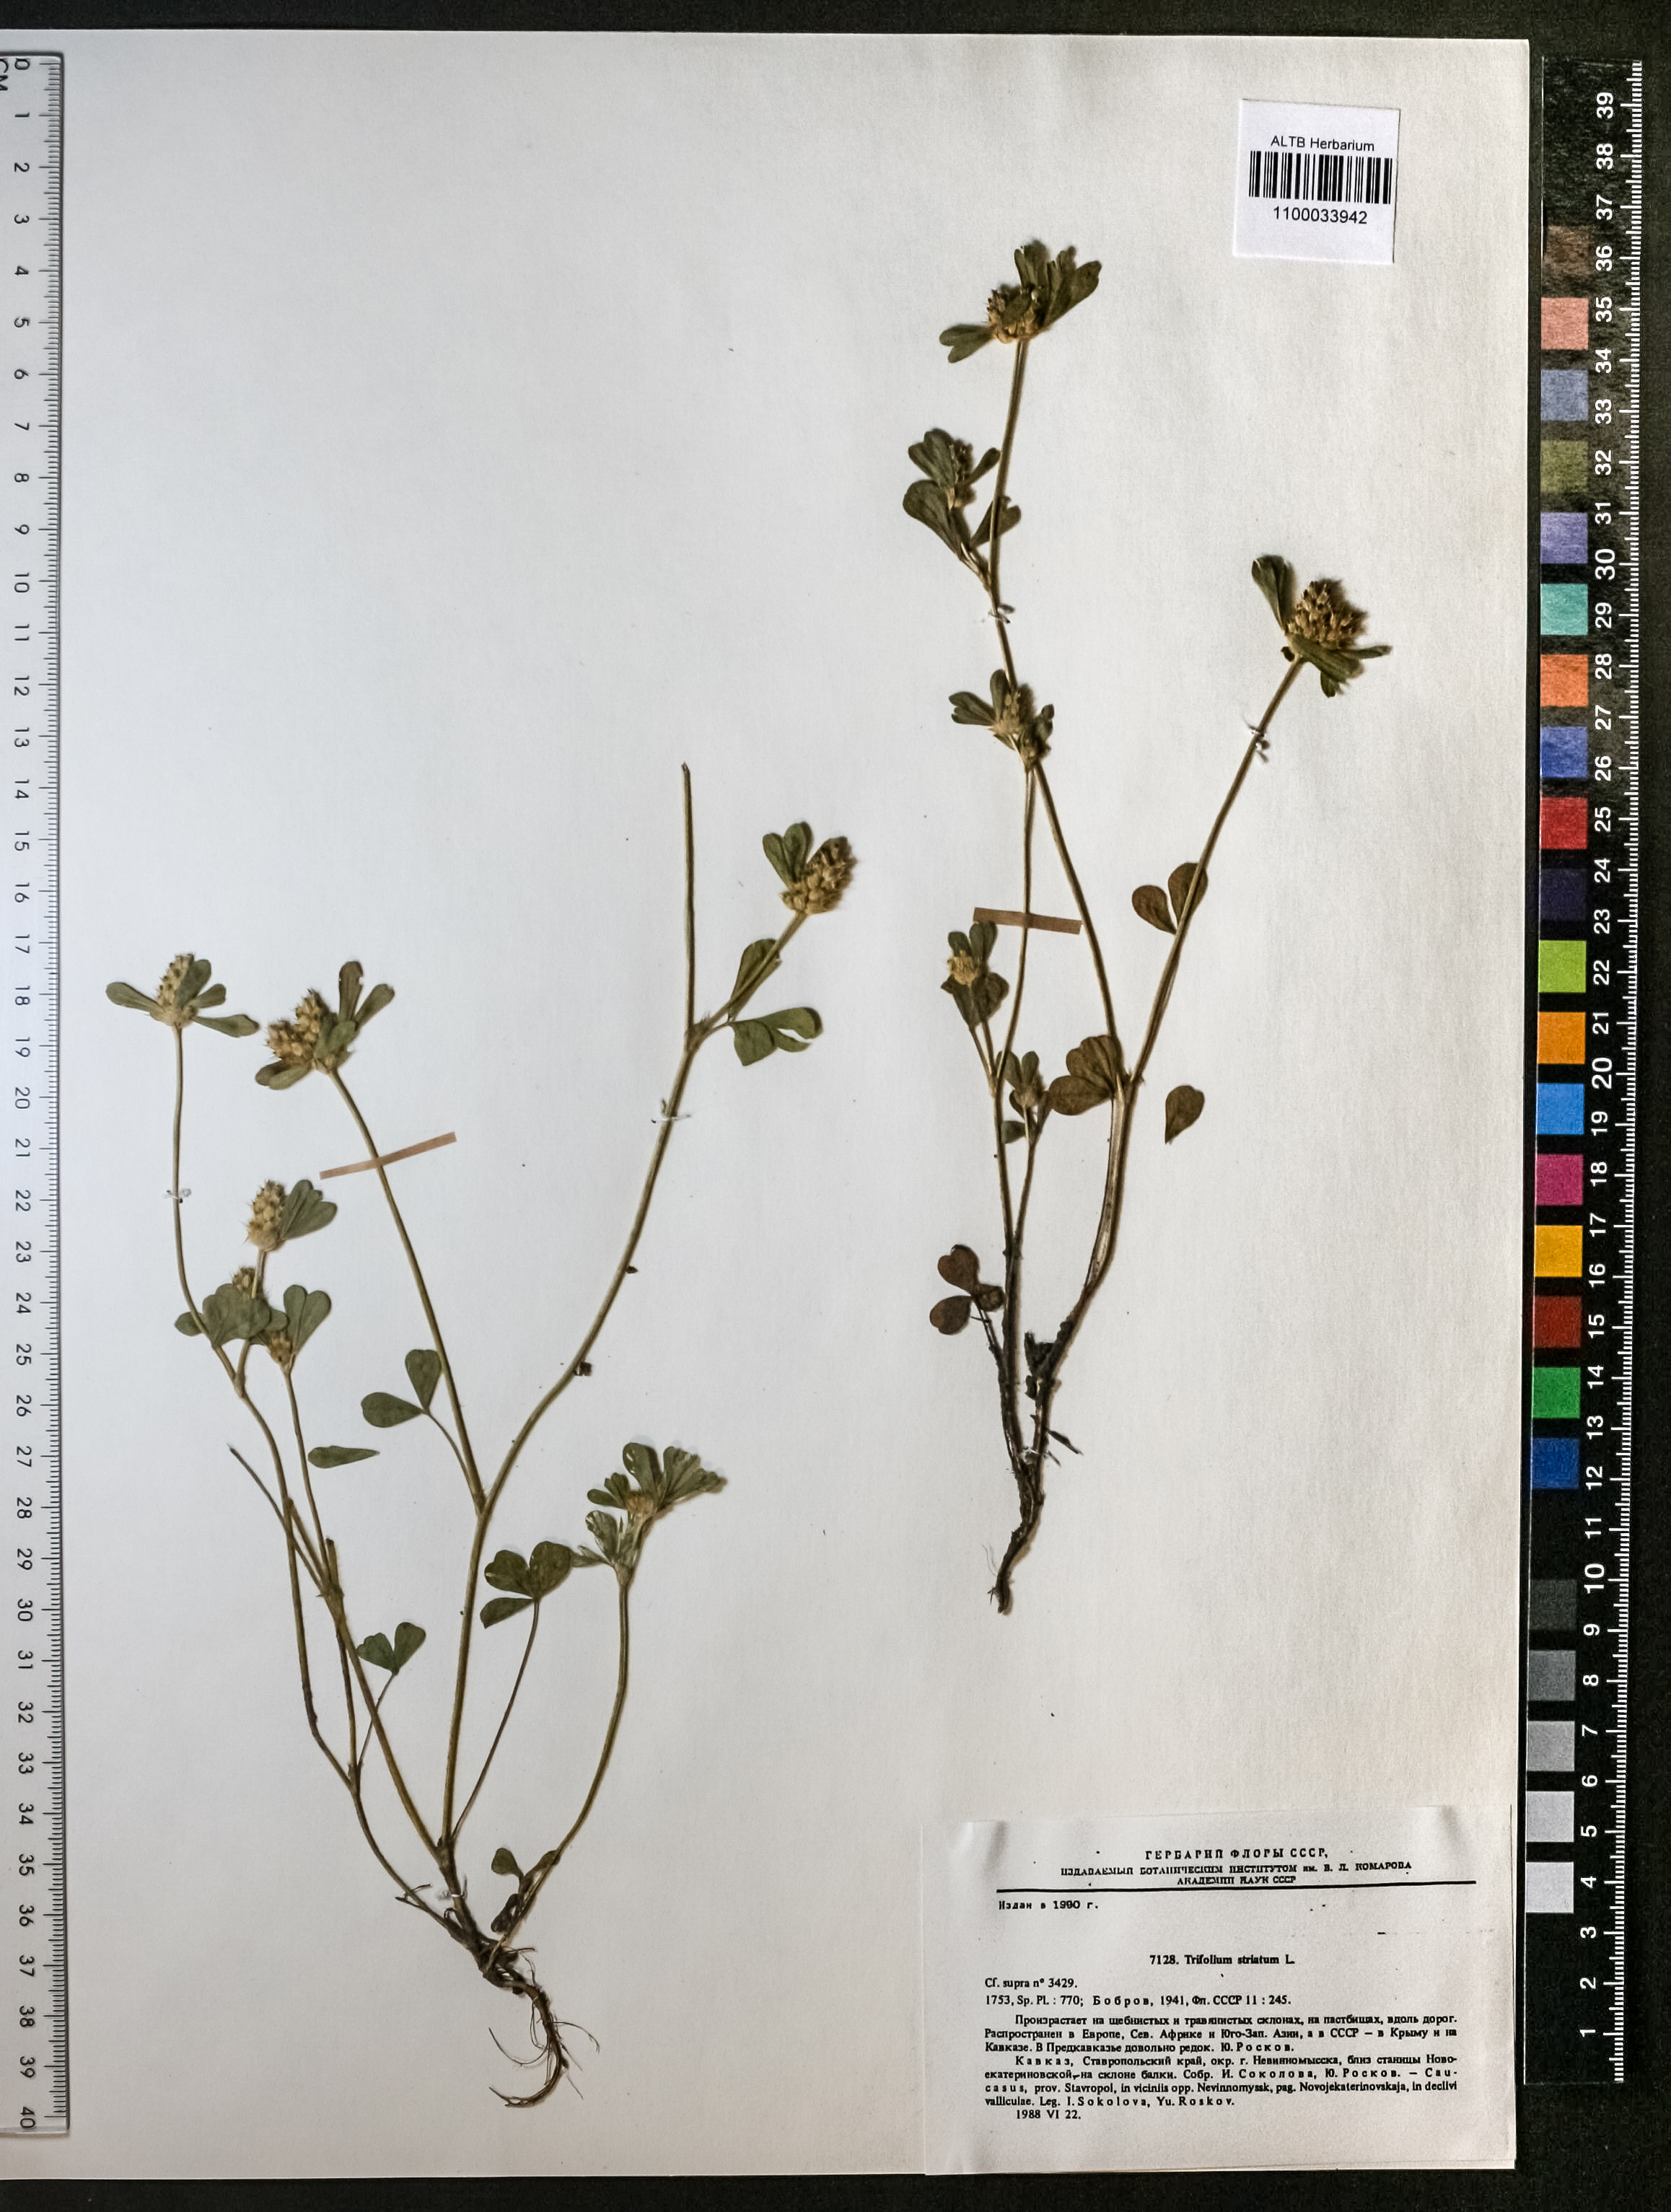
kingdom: Plantae
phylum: Tracheophyta
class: Magnoliopsida
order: Fabales
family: Fabaceae
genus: Trifolium
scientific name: Trifolium striatum
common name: Knotted clover
